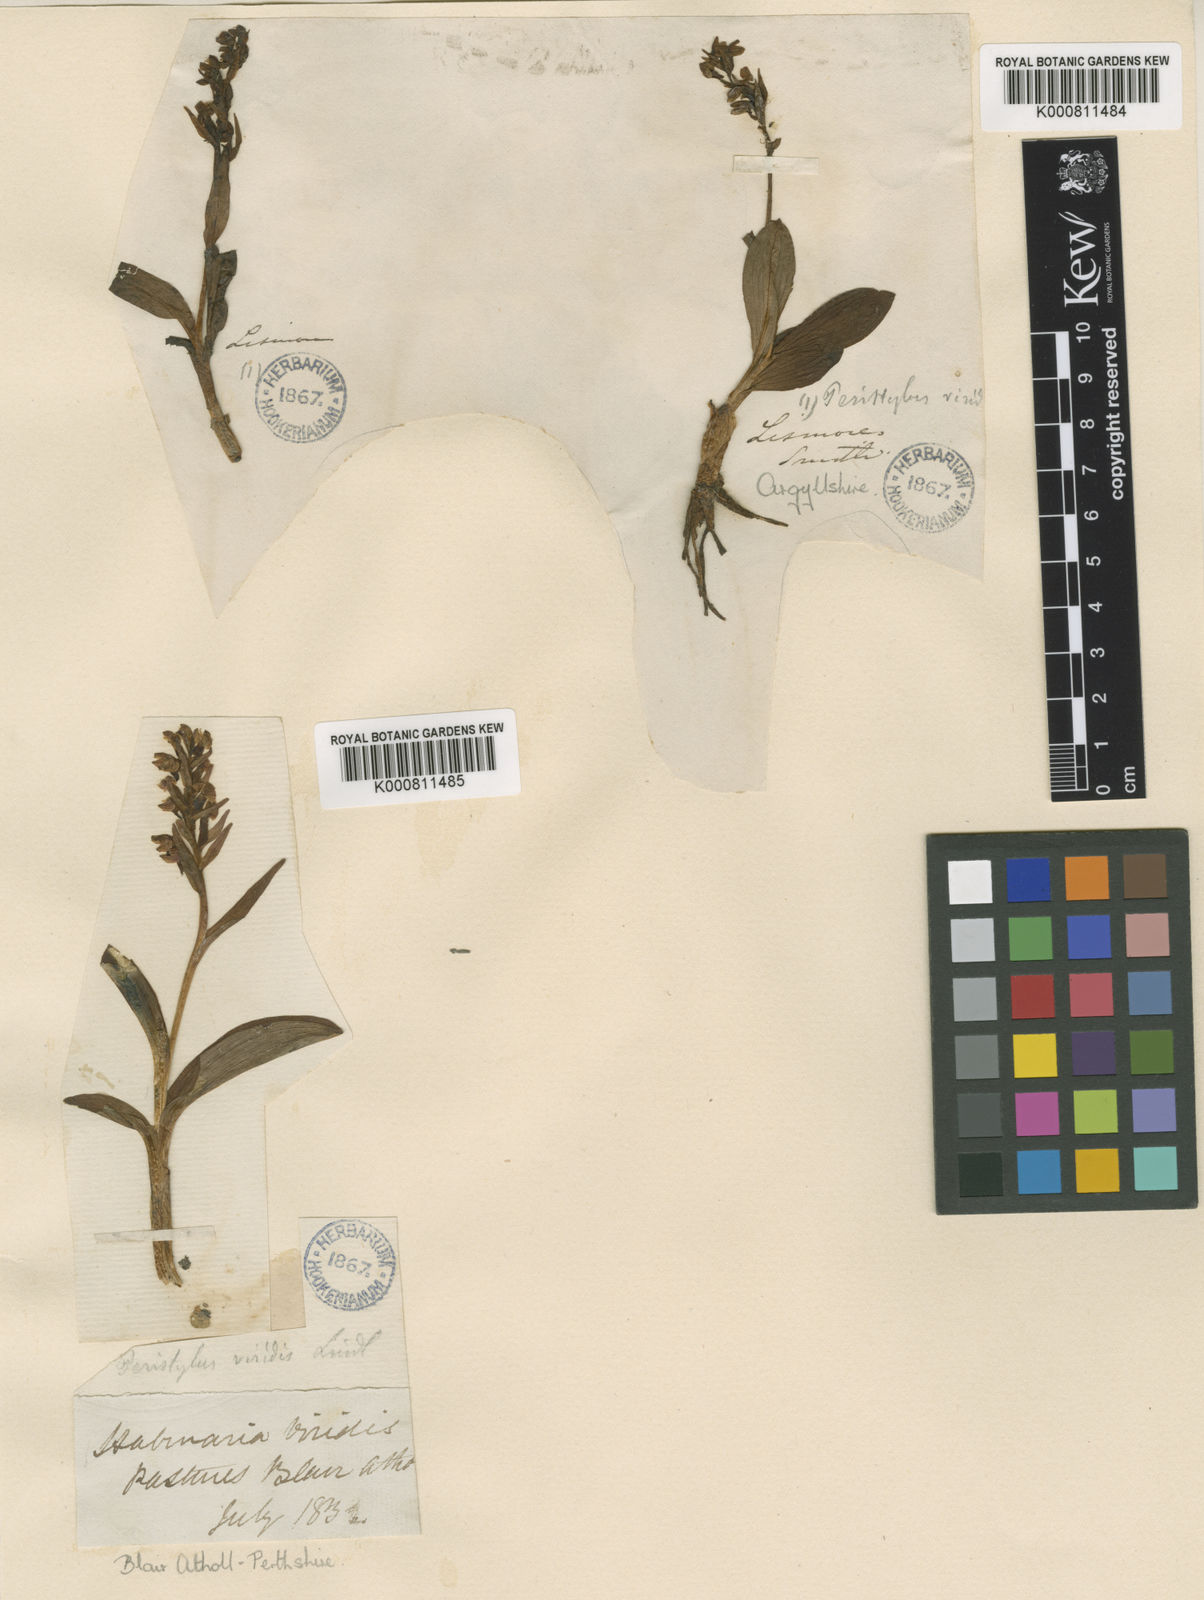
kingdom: Plantae
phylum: Tracheophyta
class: Liliopsida
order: Asparagales
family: Orchidaceae
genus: Dactylorhiza
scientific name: Dactylorhiza viridis
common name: Longbract frog orchid
